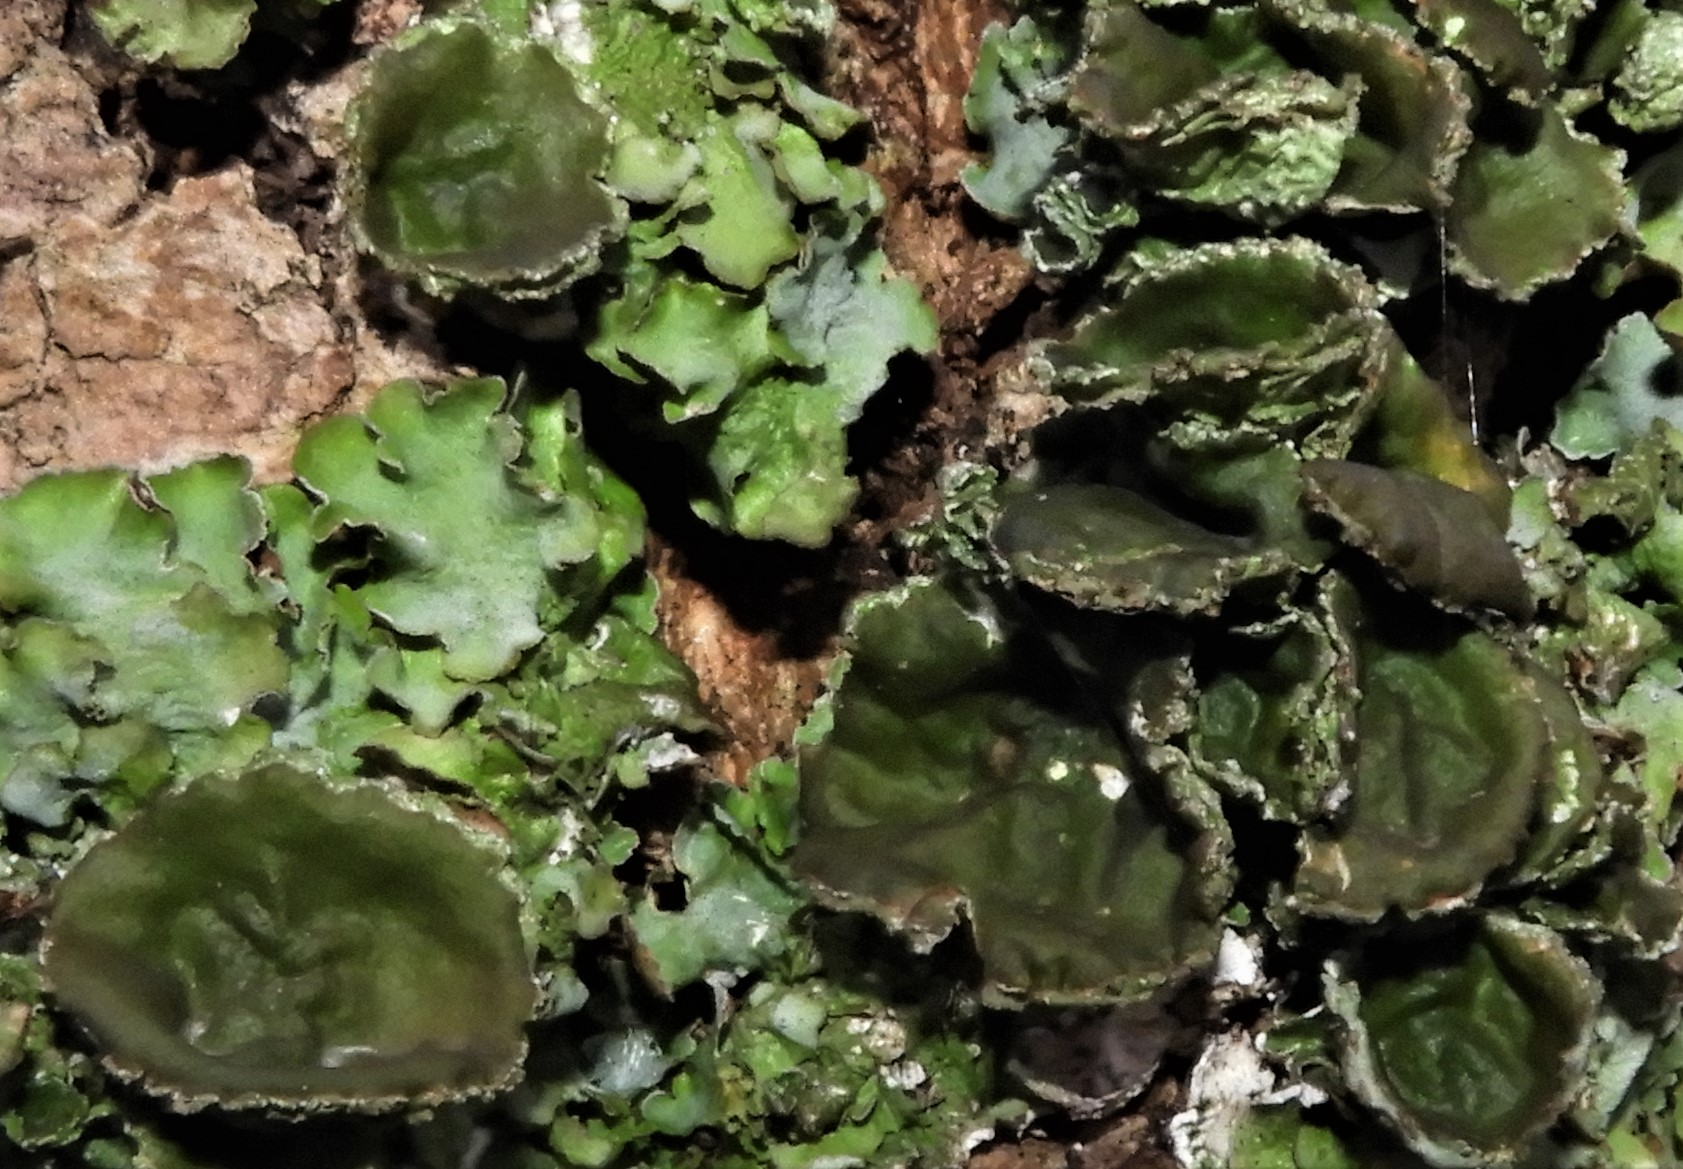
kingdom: Fungi
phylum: Ascomycota
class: Lecanoromycetes
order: Lecanorales
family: Parmeliaceae
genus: Pleurosticta
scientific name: Pleurosticta acetabulum
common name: stor skållav
